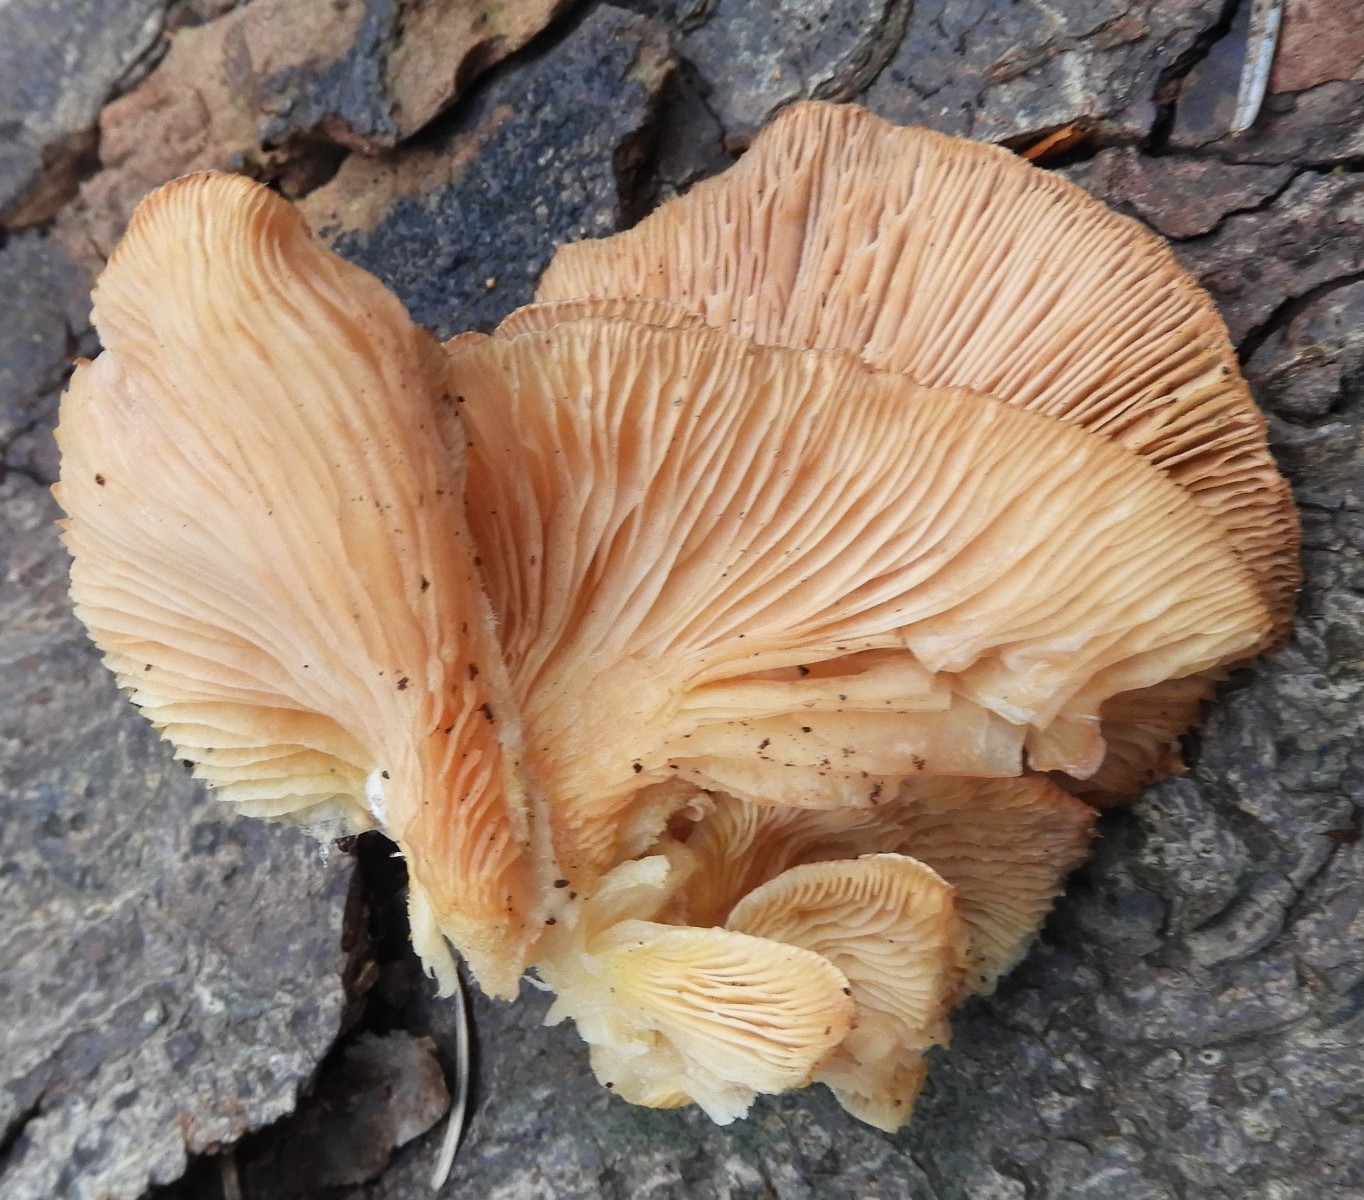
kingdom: Fungi
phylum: Basidiomycota
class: Agaricomycetes
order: Agaricales
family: Sarcomyxaceae
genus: Sarcomyxa
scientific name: Sarcomyxa serotina
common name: gummihat
